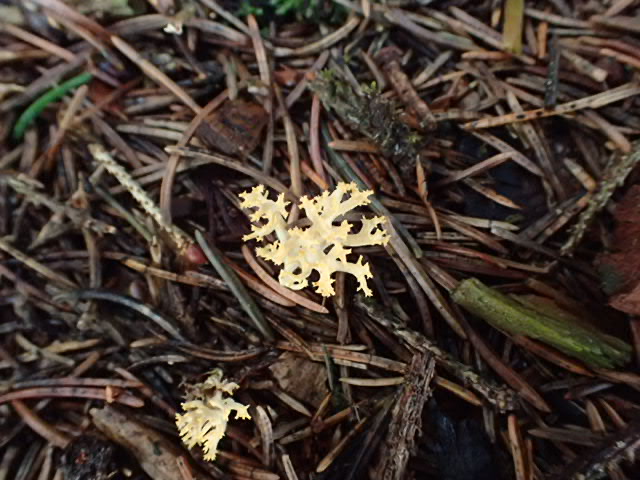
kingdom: Fungi
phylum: Basidiomycota
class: Agaricomycetes
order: Gomphales
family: Gomphaceae
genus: Phaeoclavulina
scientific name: Phaeoclavulina
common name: koralsvamp
